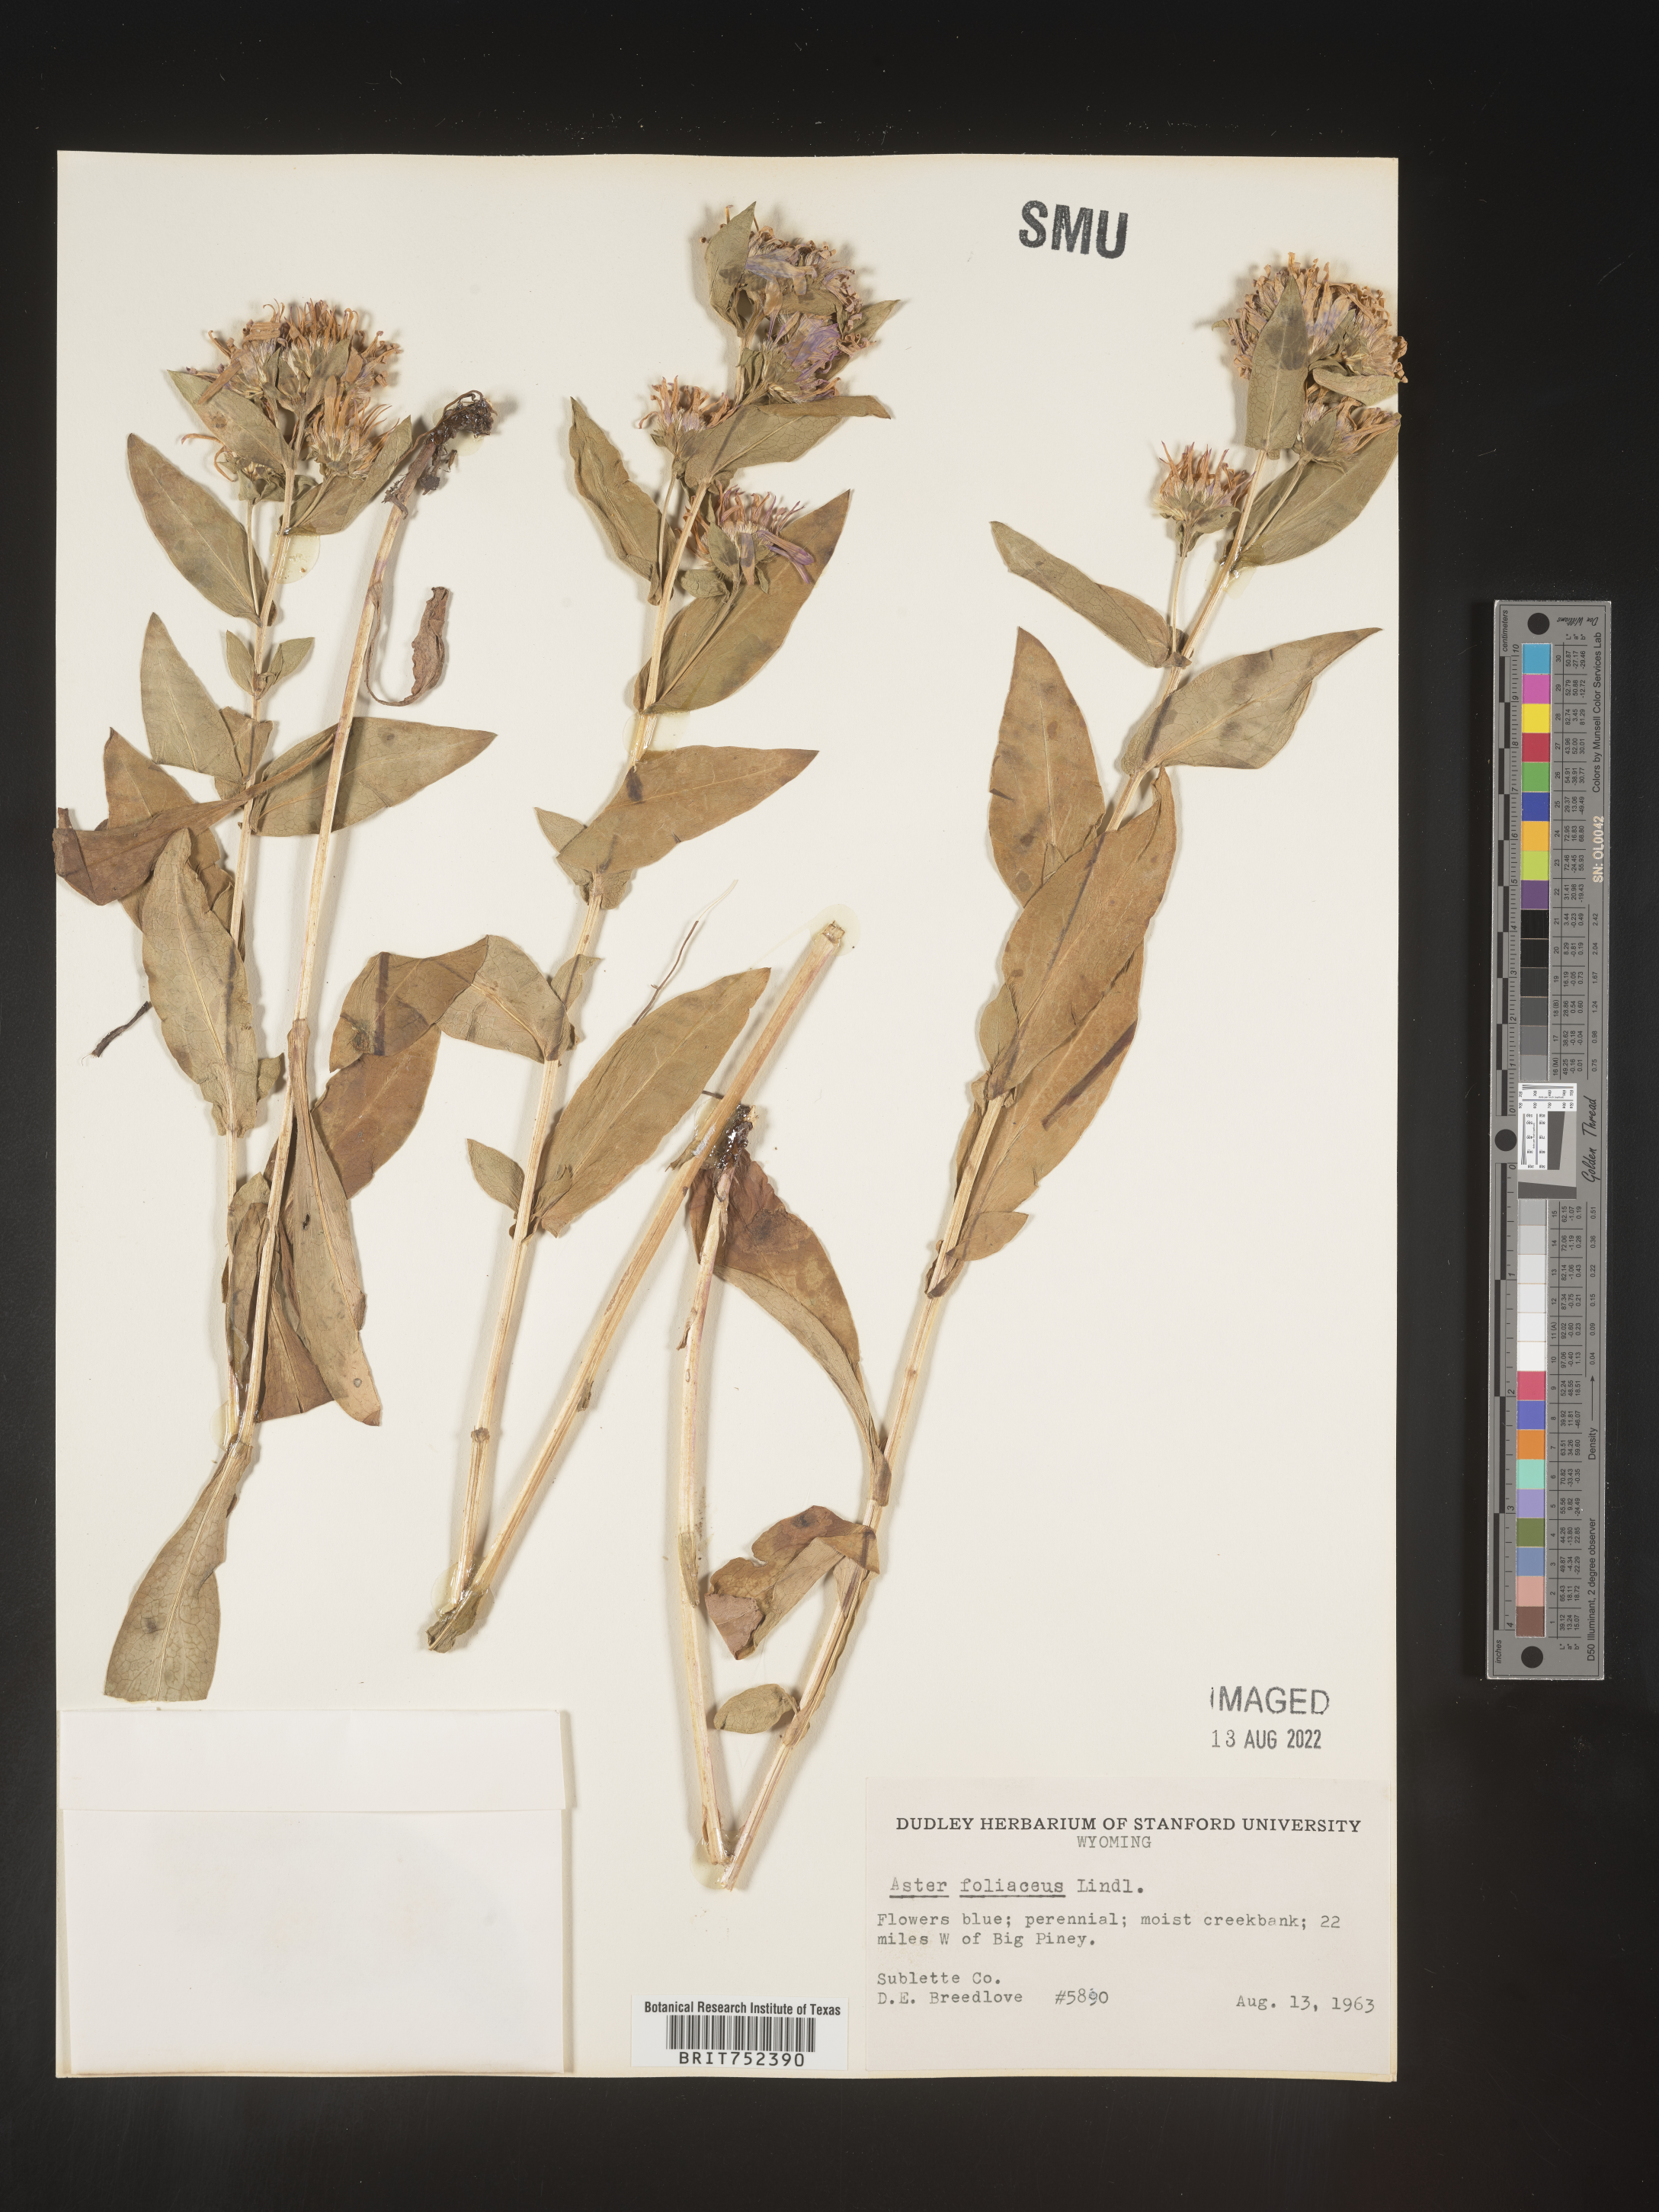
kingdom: Plantae
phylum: Tracheophyta
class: Magnoliopsida
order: Asterales
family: Asteraceae
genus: Symphyotrichum
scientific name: Symphyotrichum foliaceum
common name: Leafy aster
